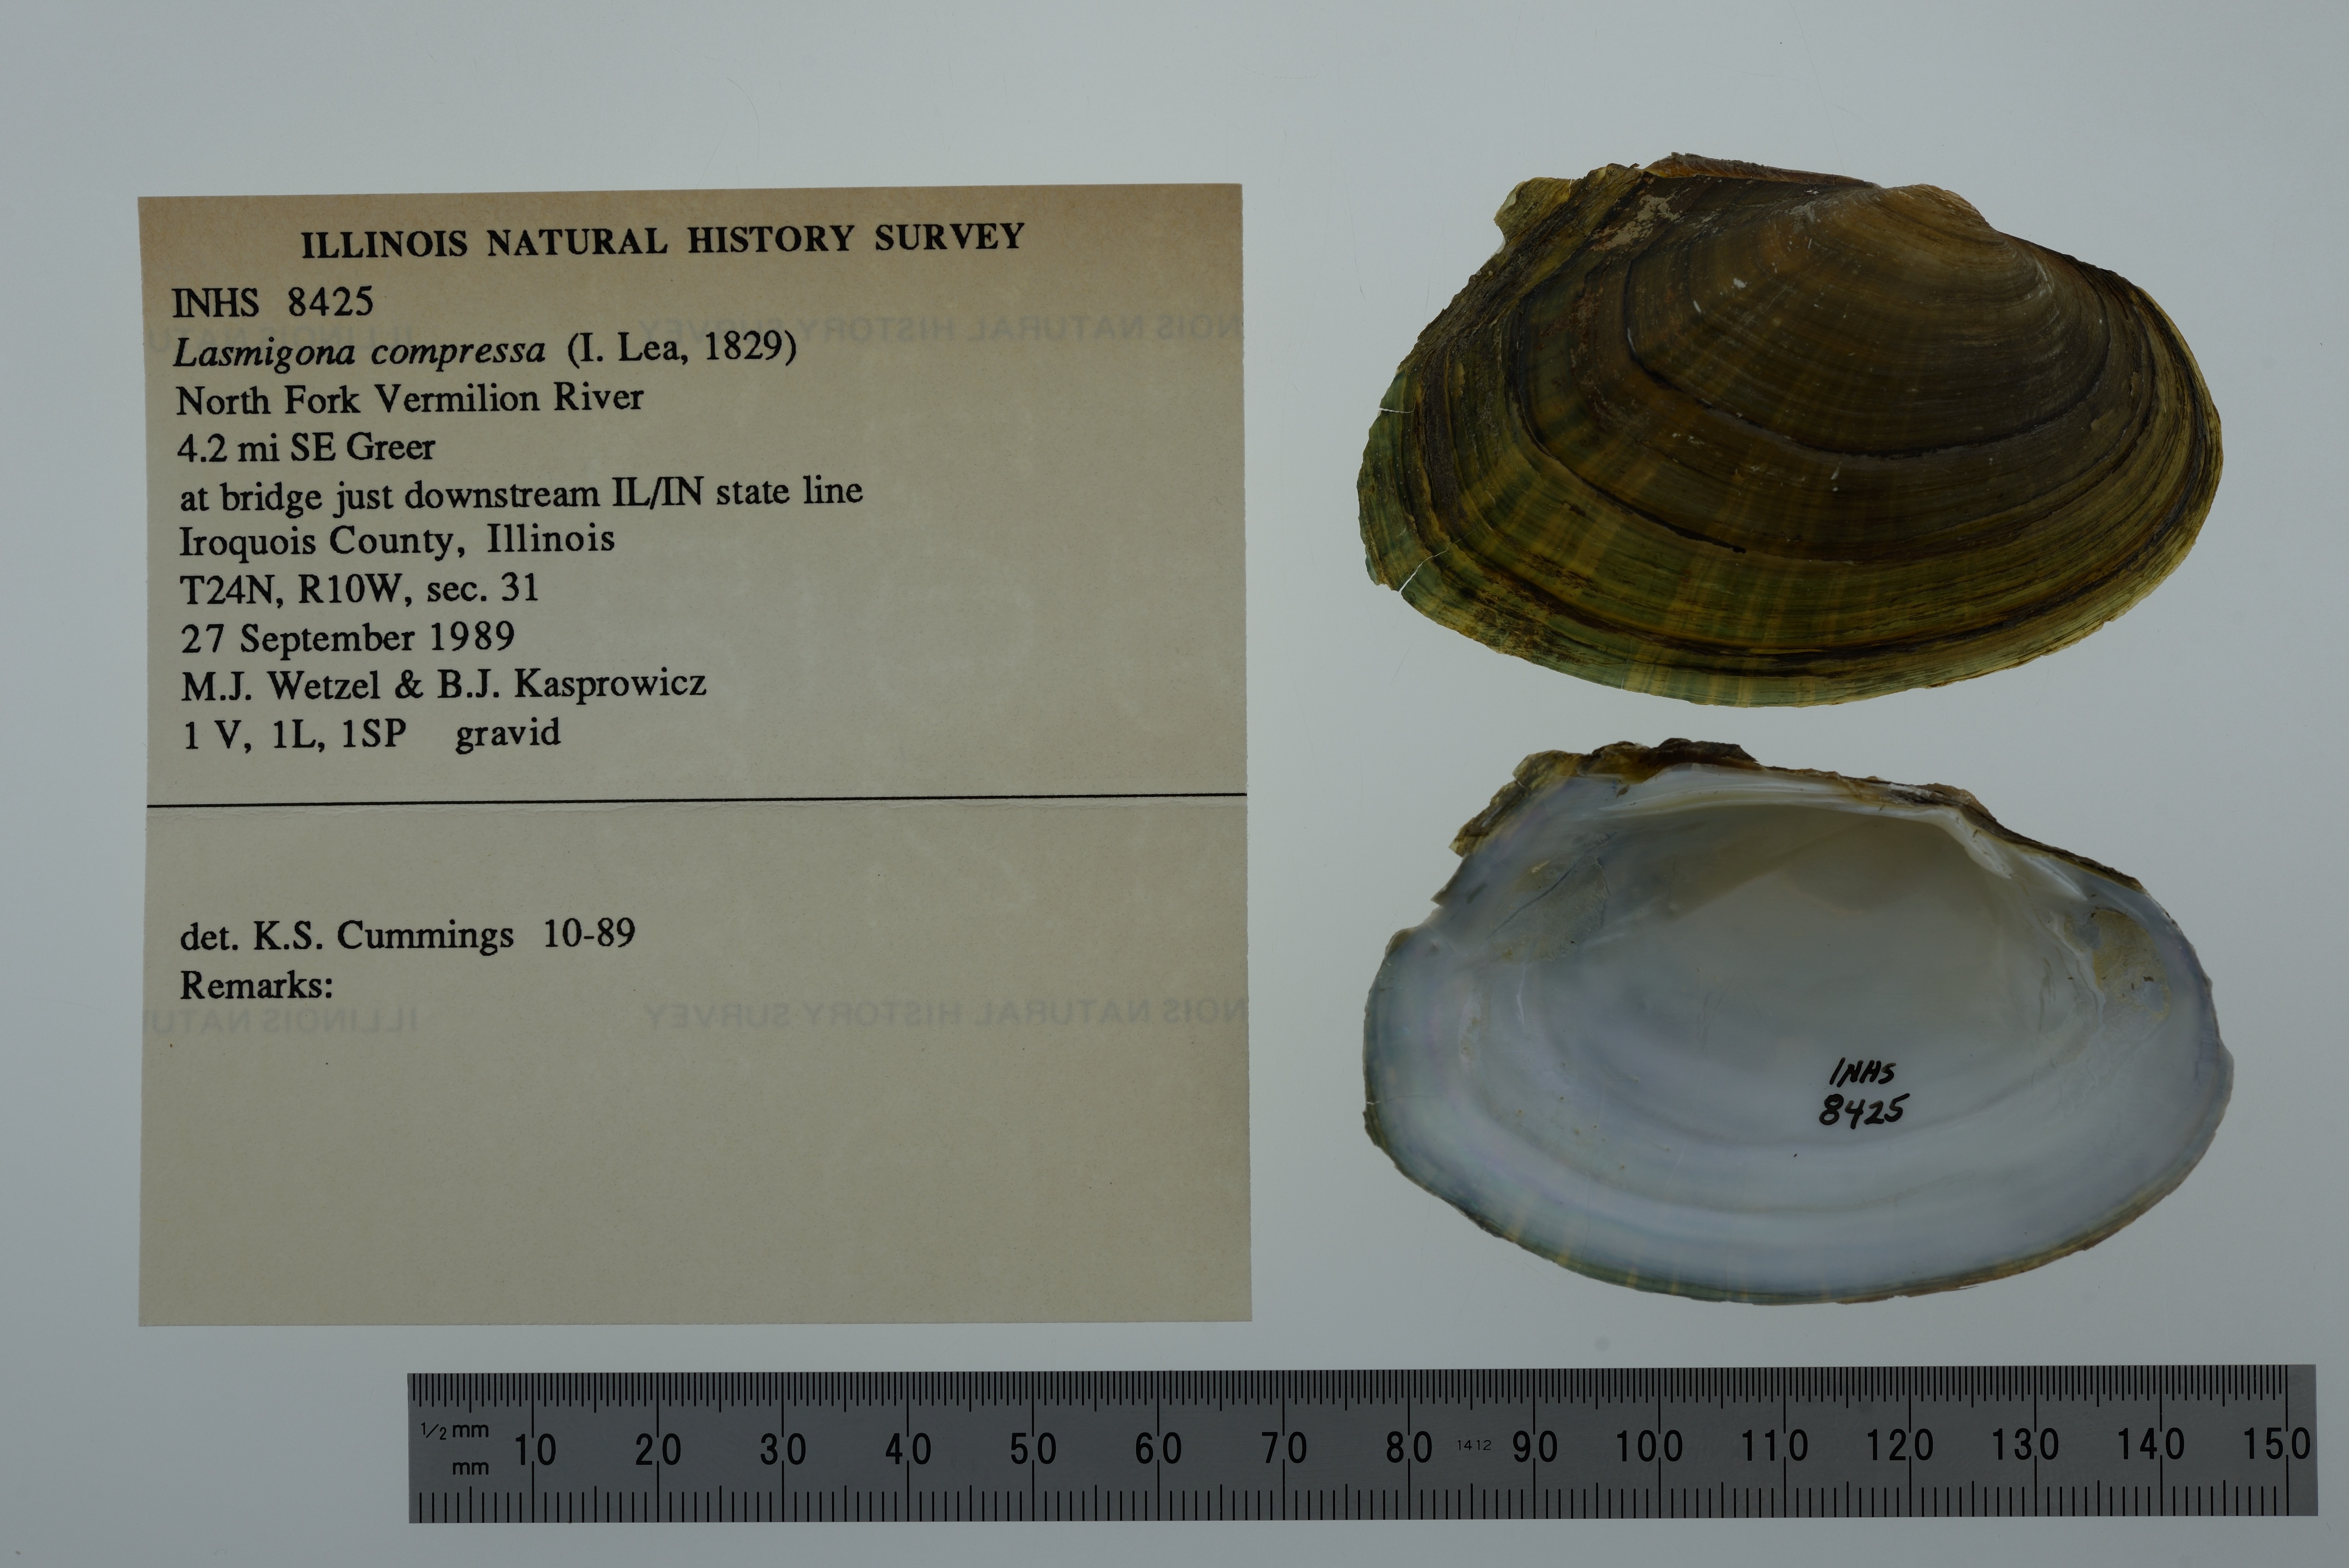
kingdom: Animalia
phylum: Mollusca
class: Bivalvia
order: Unionida
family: Unionidae
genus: Lasmigona
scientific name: Lasmigona compressa
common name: Creek heelsplitter
